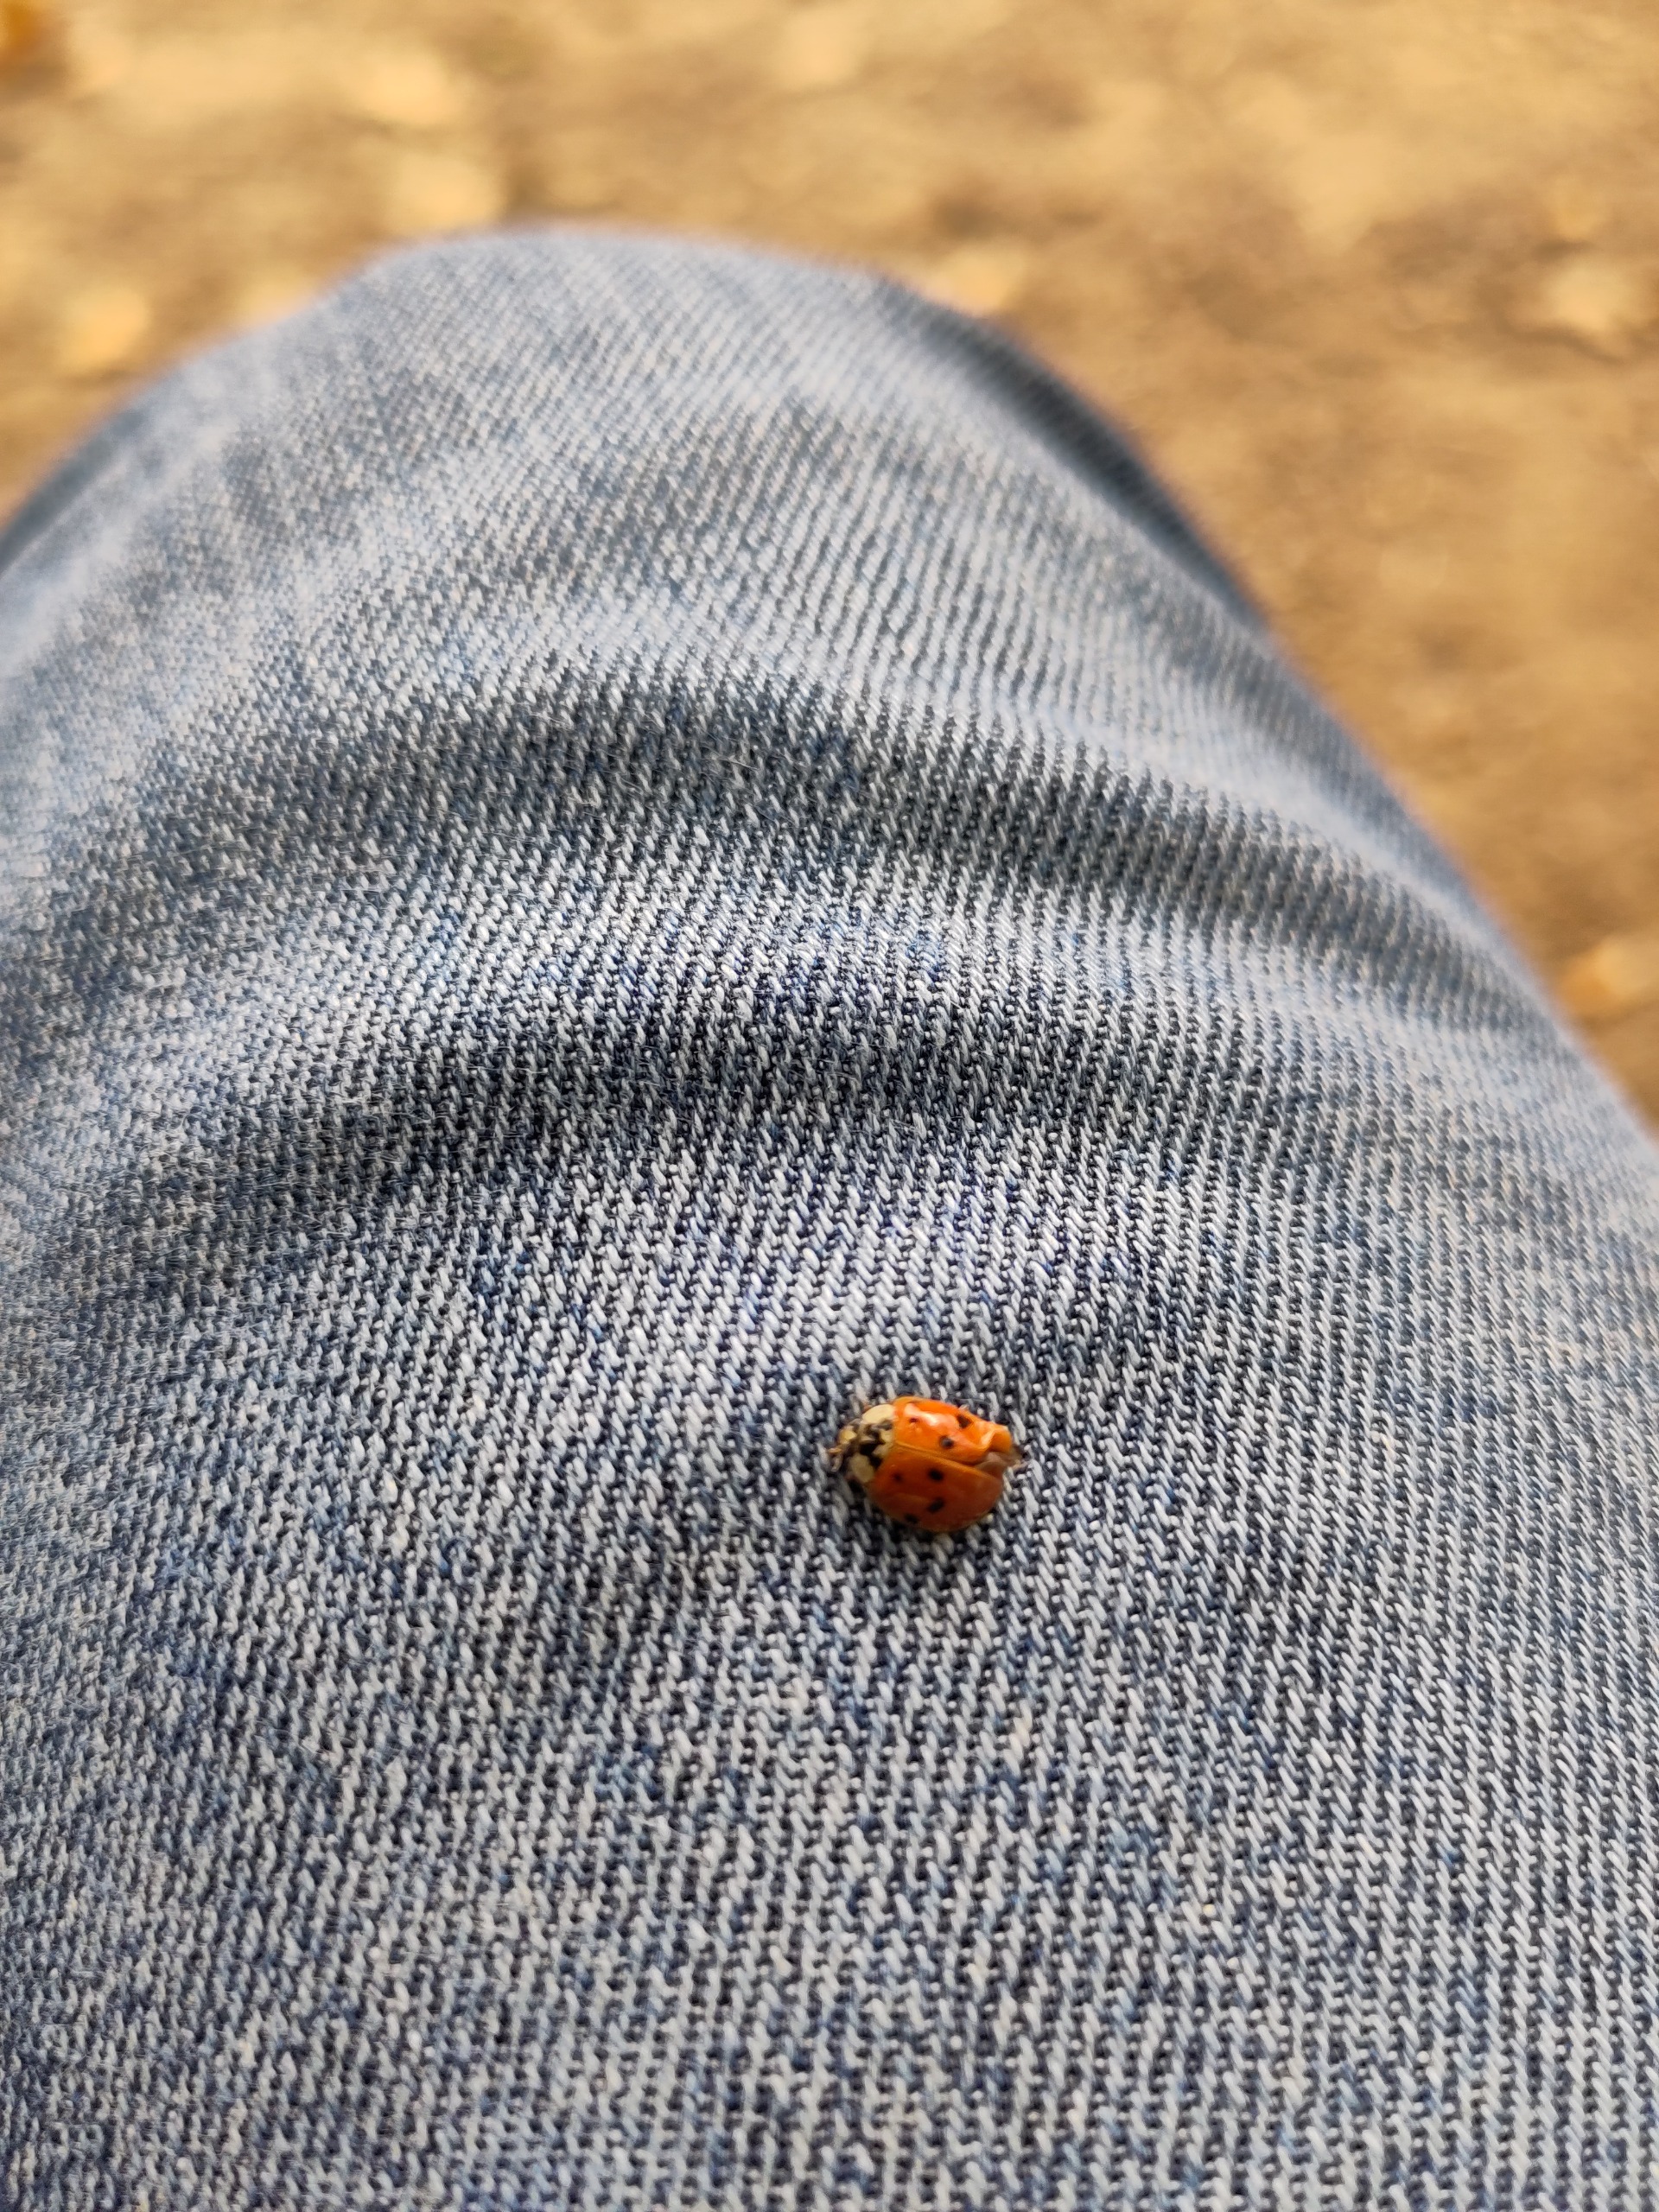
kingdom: Animalia
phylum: Arthropoda
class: Insecta
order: Coleoptera
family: Coccinellidae
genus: Harmonia
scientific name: Harmonia axyridis
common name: Harlekinmariehøne
